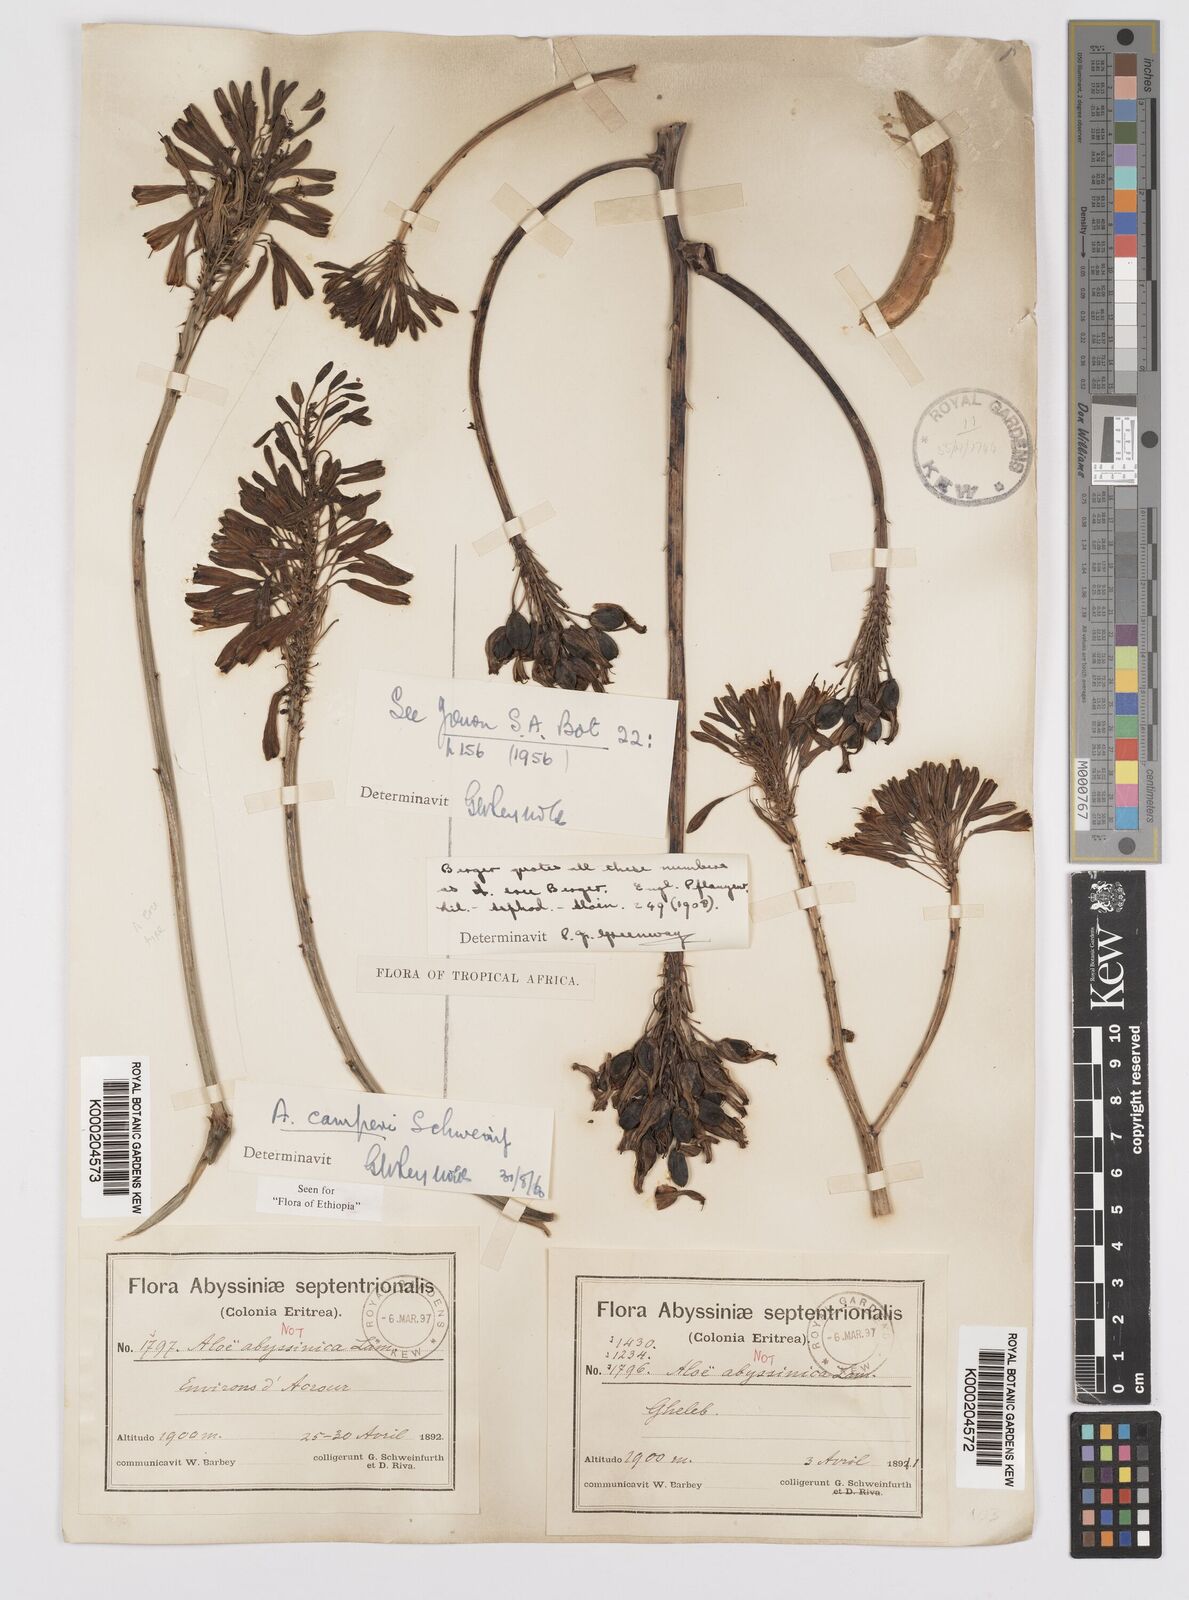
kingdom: Plantae
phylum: Tracheophyta
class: Liliopsida
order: Asparagales
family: Asphodelaceae
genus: Aloe
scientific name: Aloe camperi
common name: Camper's aloe
